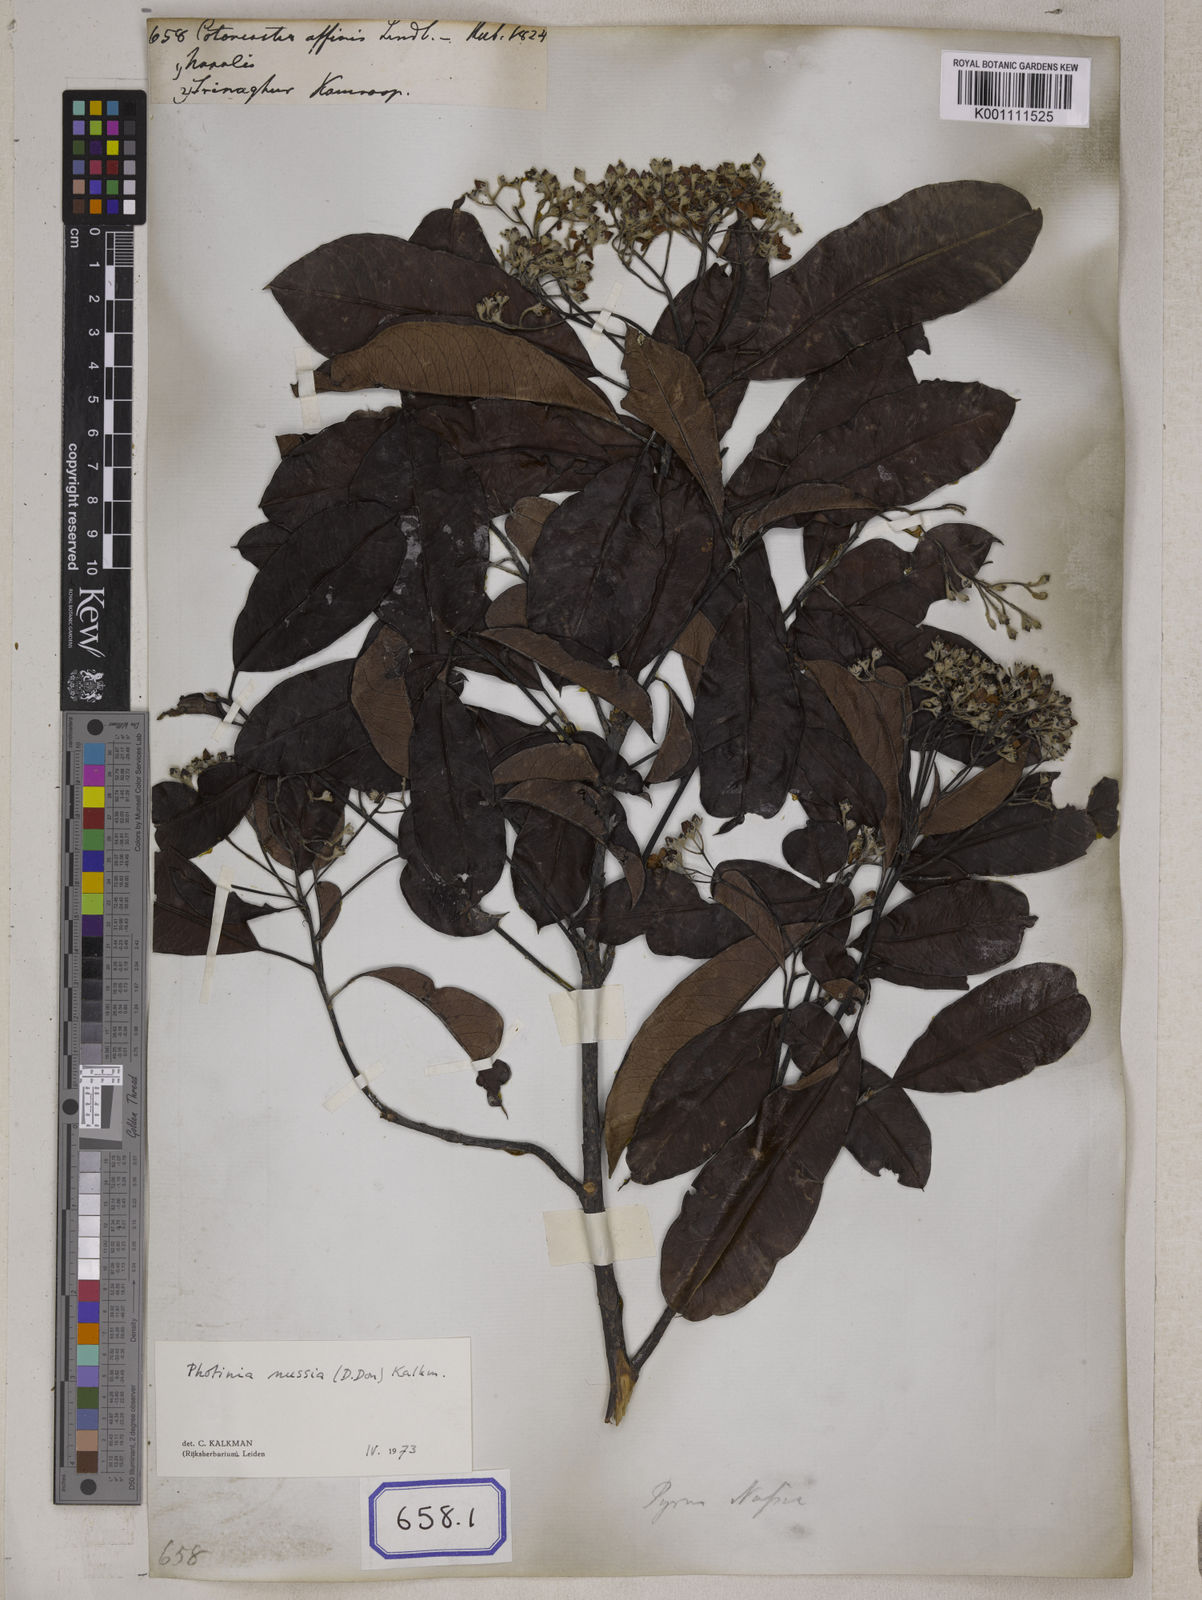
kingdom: Plantae
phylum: Tracheophyta
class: Magnoliopsida
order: Rosales
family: Rosaceae
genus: Cotoneaster
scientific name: Cotoneaster affinis
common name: Purpleberry cotoneaster
